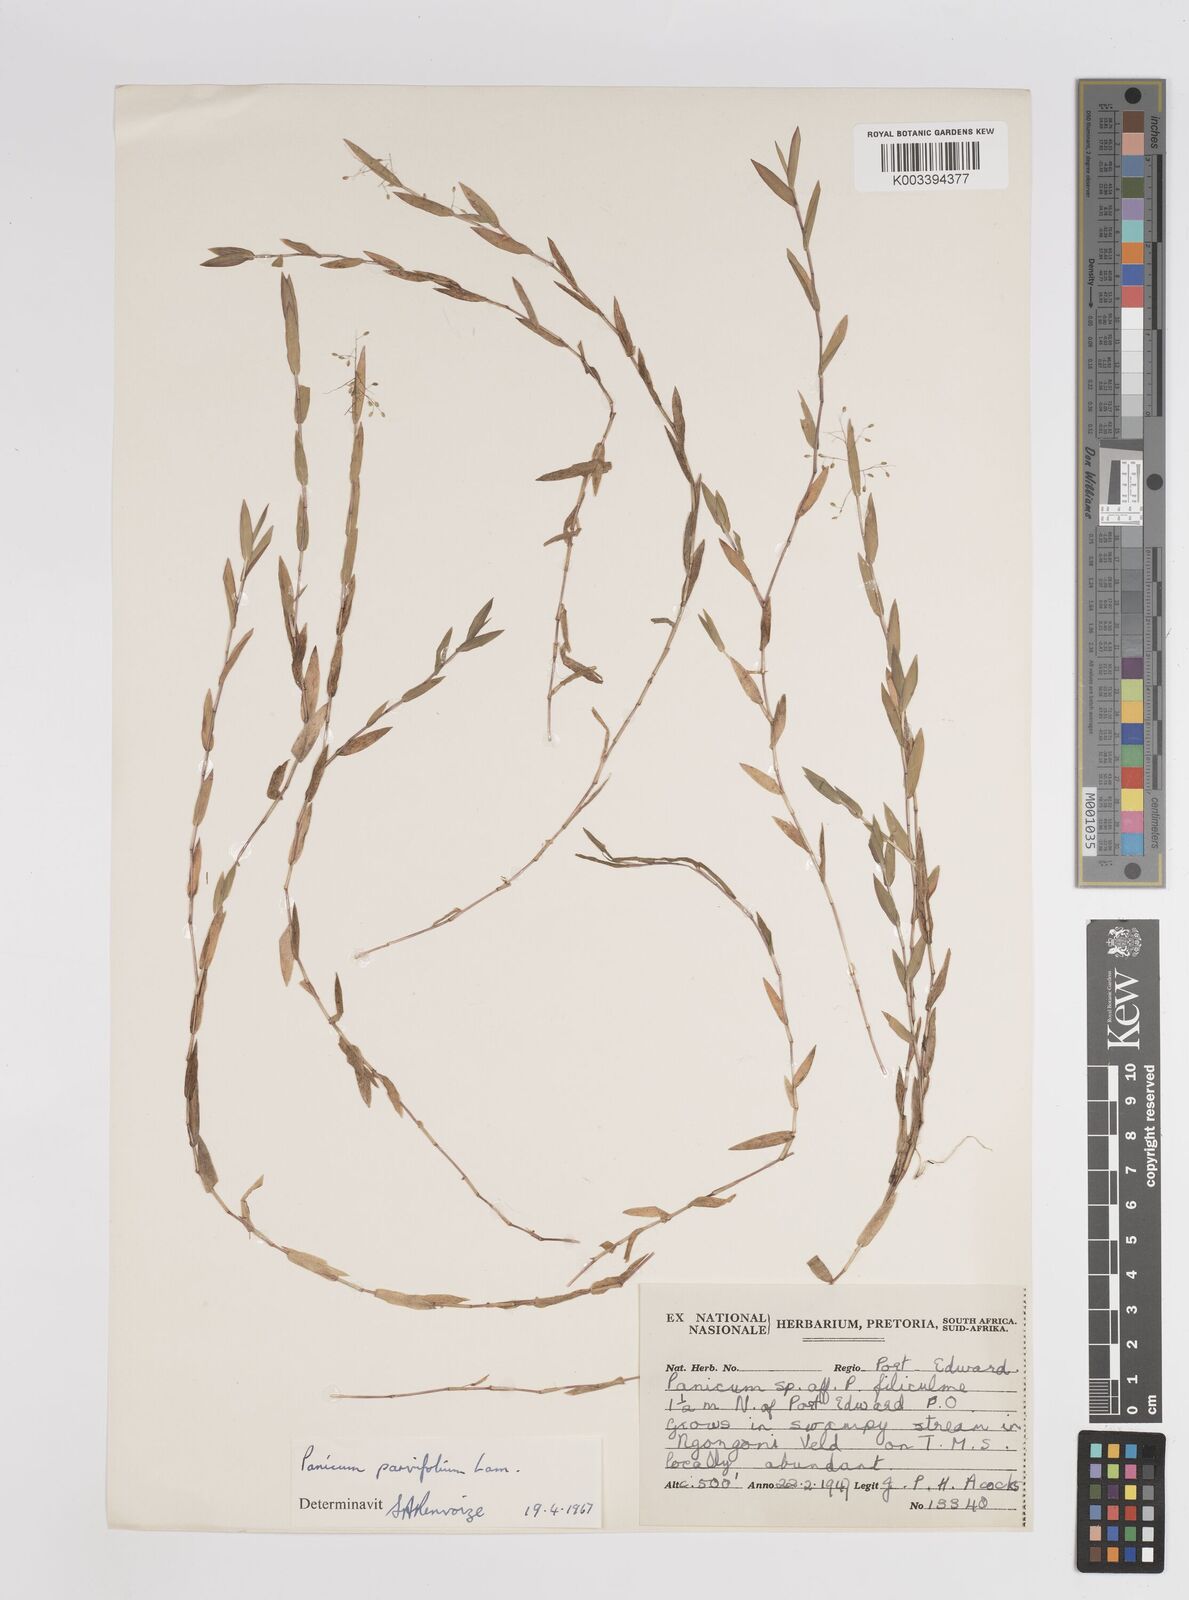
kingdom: Plantae
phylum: Tracheophyta
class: Liliopsida
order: Poales
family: Poaceae
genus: Digitaria
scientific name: Digitaria parviflora
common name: Small-flower finger grass
